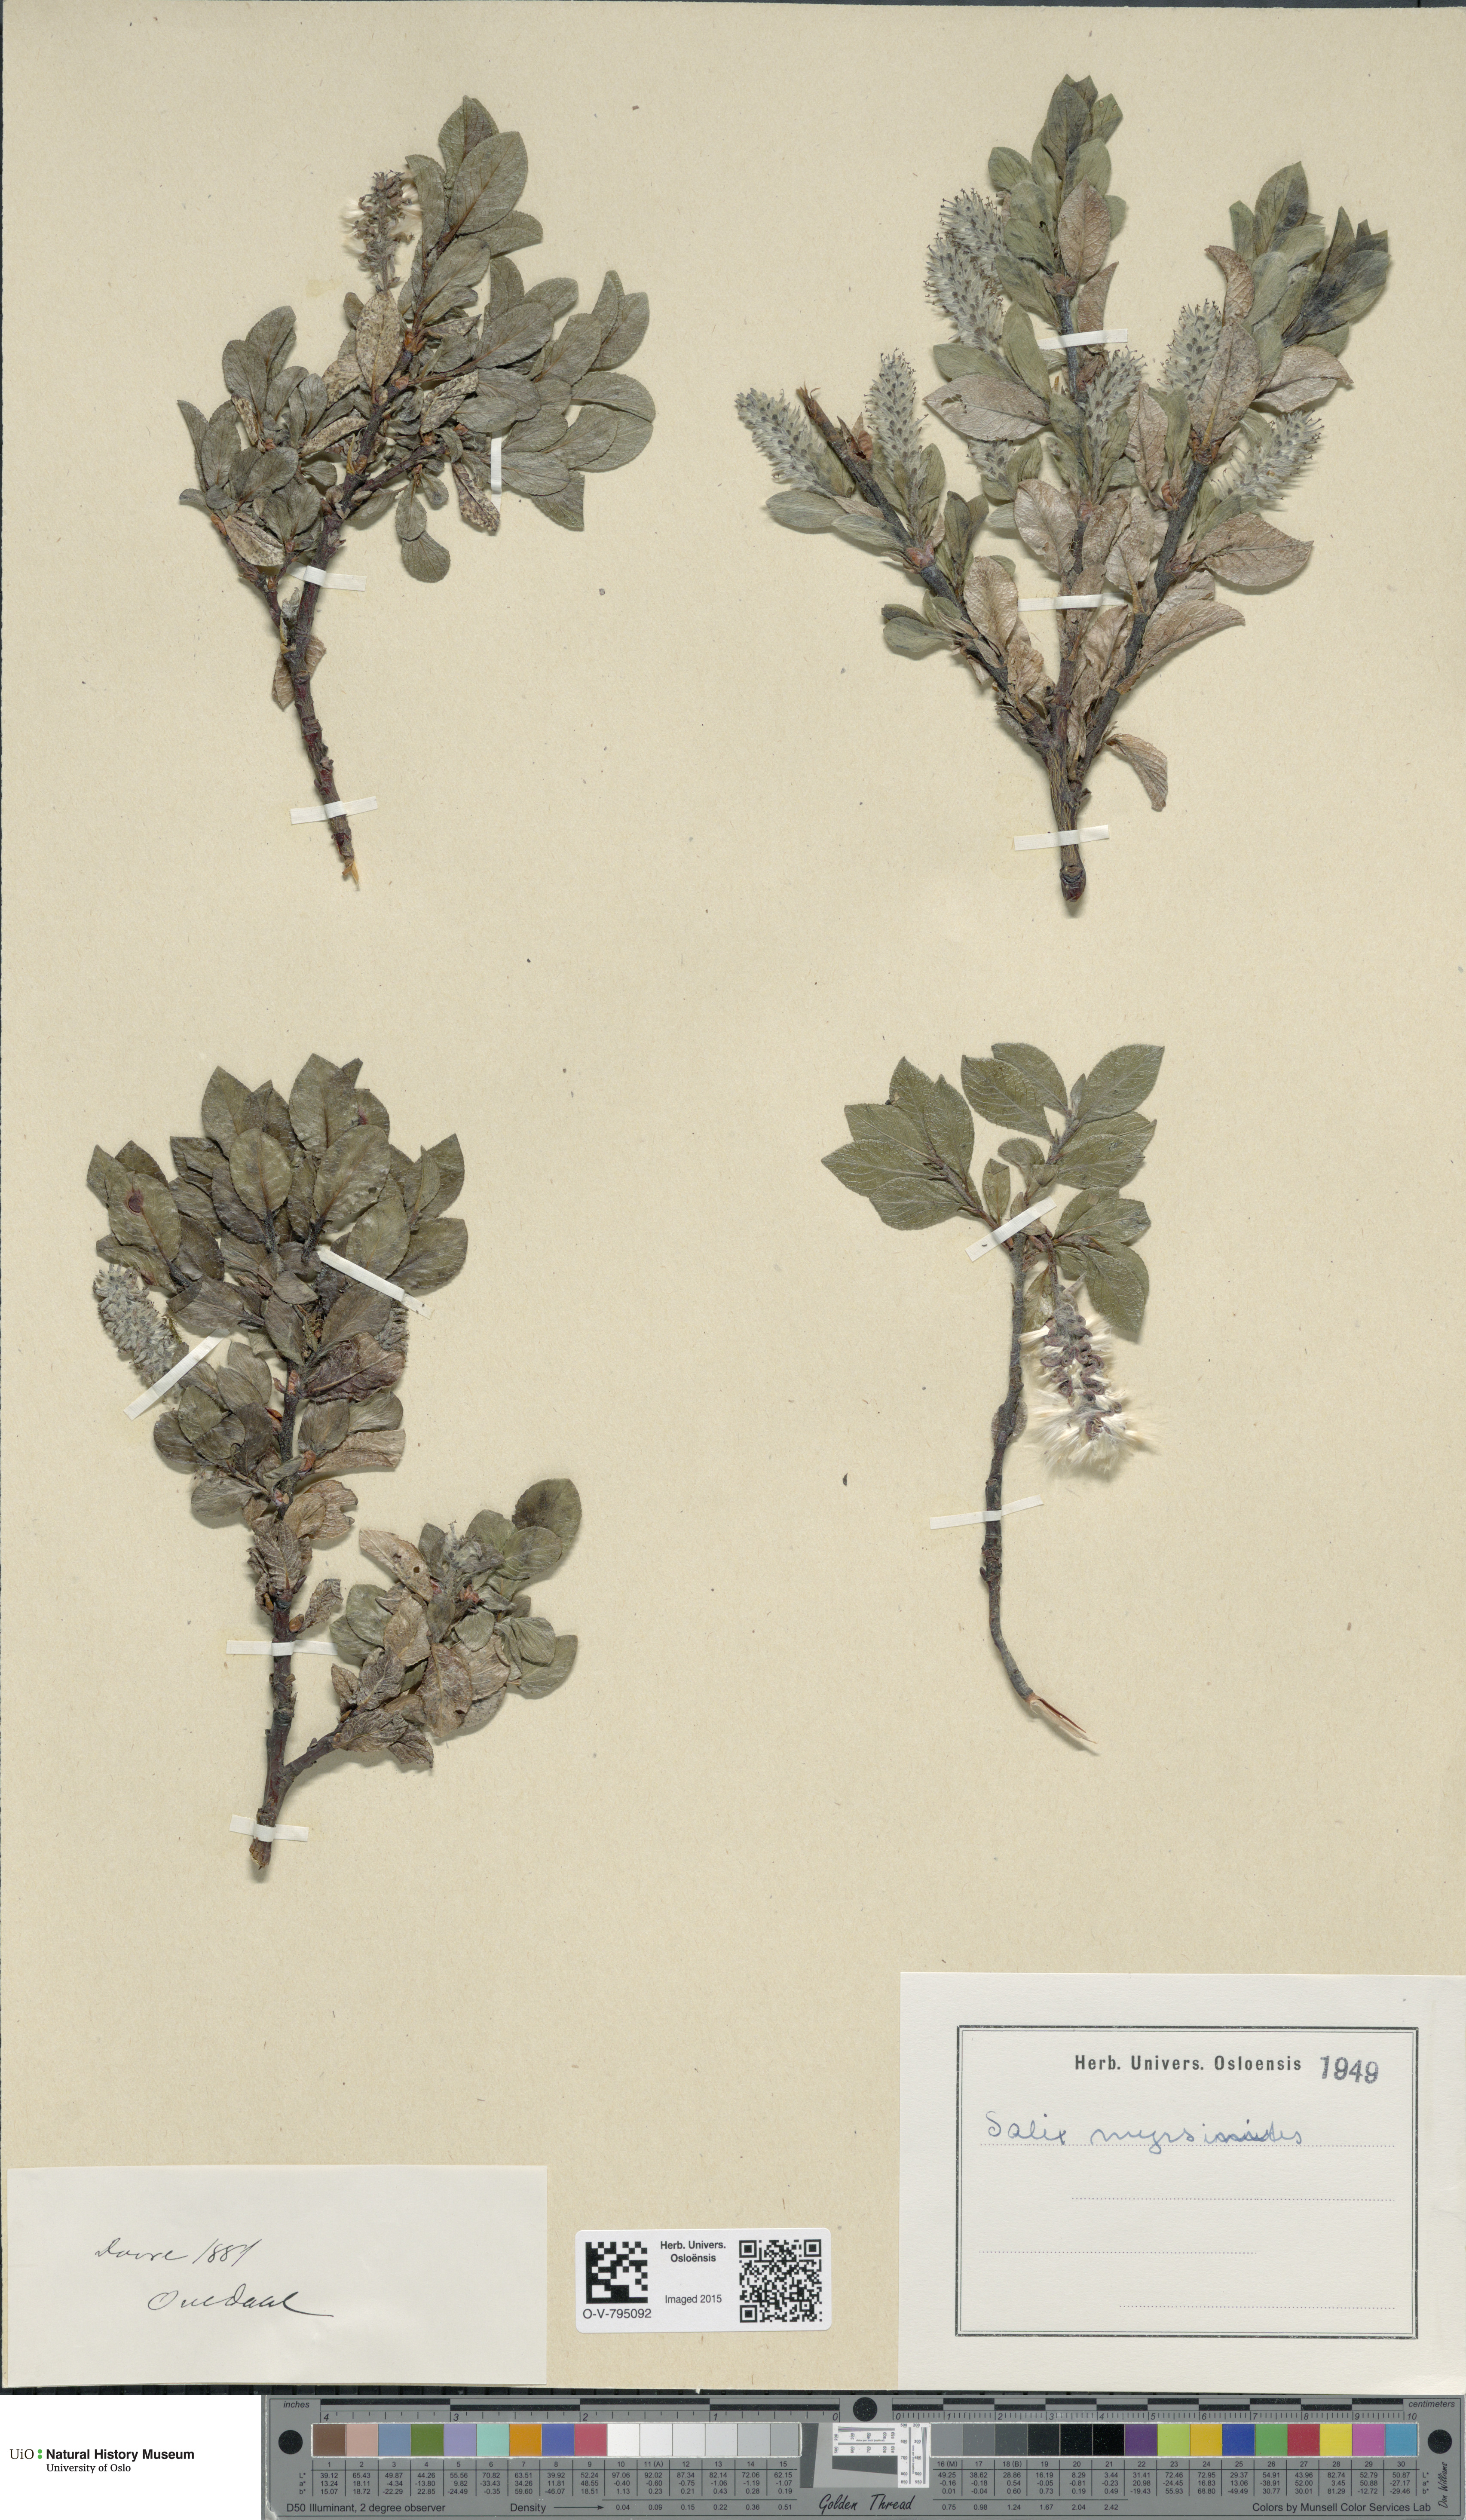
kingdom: Plantae
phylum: Tracheophyta
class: Magnoliopsida
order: Malpighiales
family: Salicaceae
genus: Salix
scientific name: Salix myrsinites
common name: Myrtle willow
